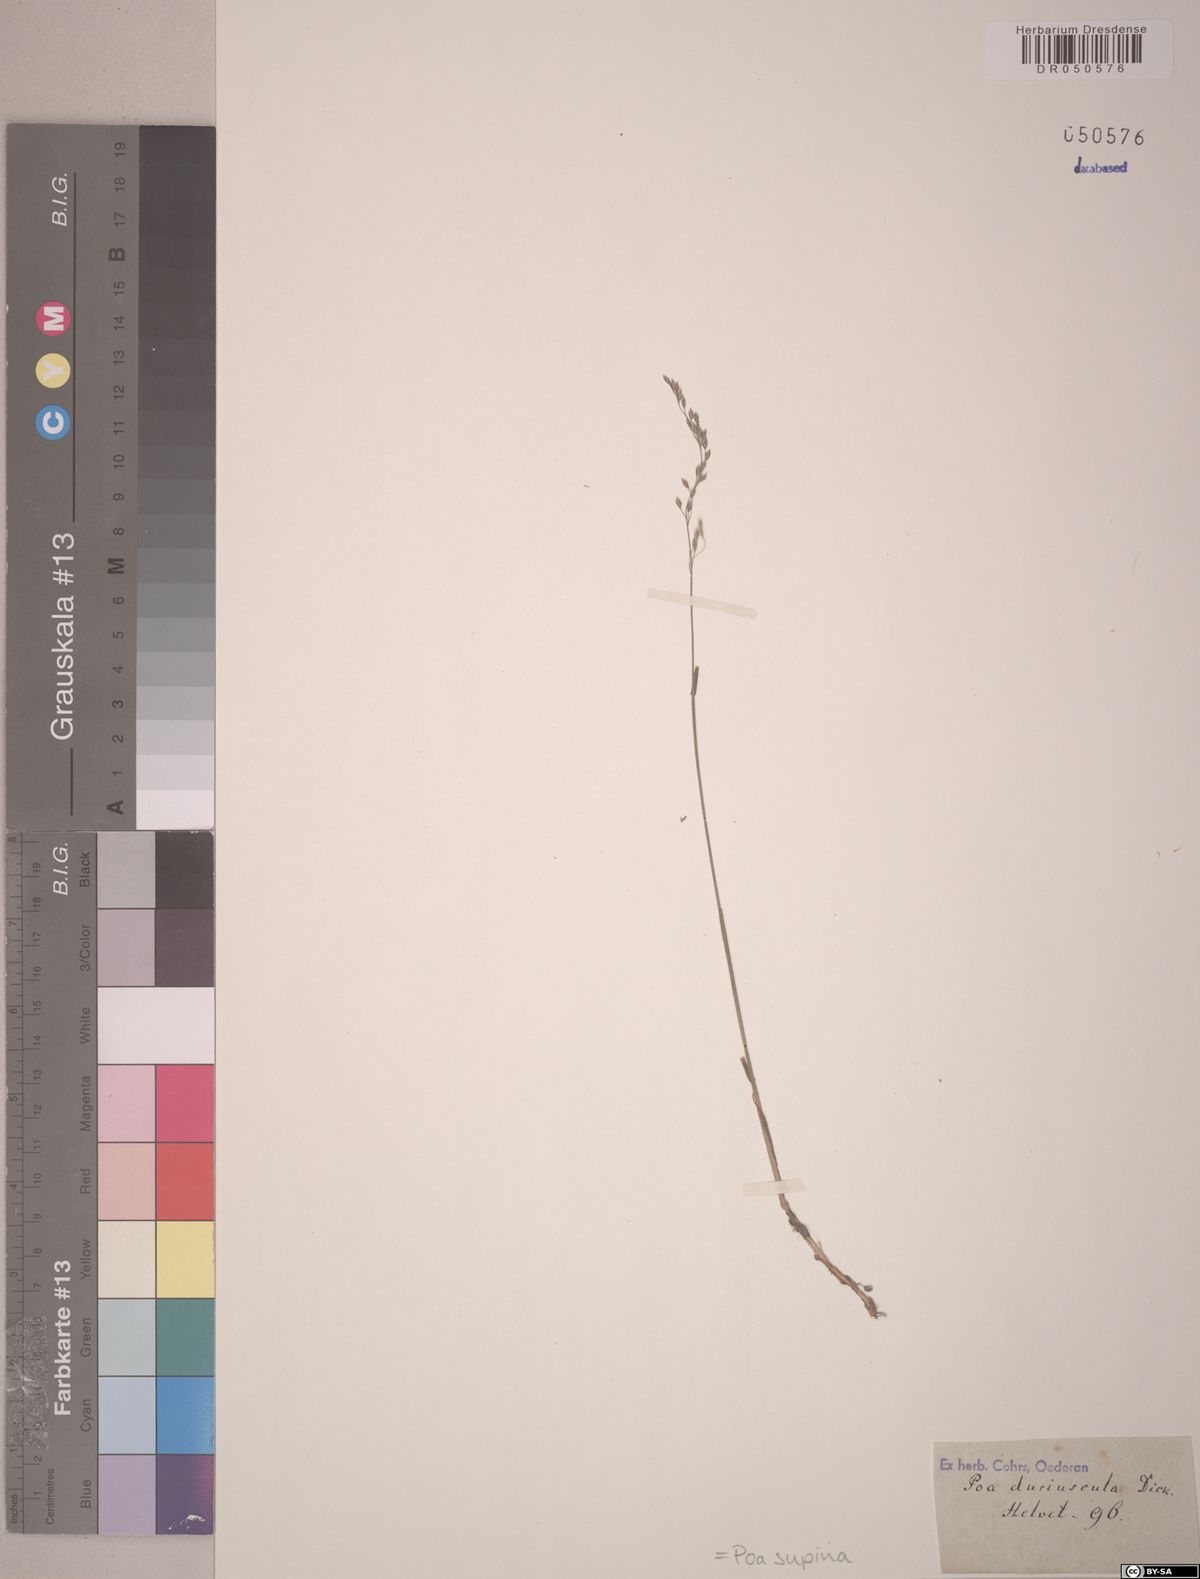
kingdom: Plantae
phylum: Tracheophyta
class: Liliopsida
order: Poales
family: Poaceae
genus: Poa
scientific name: Poa supina
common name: Supina bluegrass
